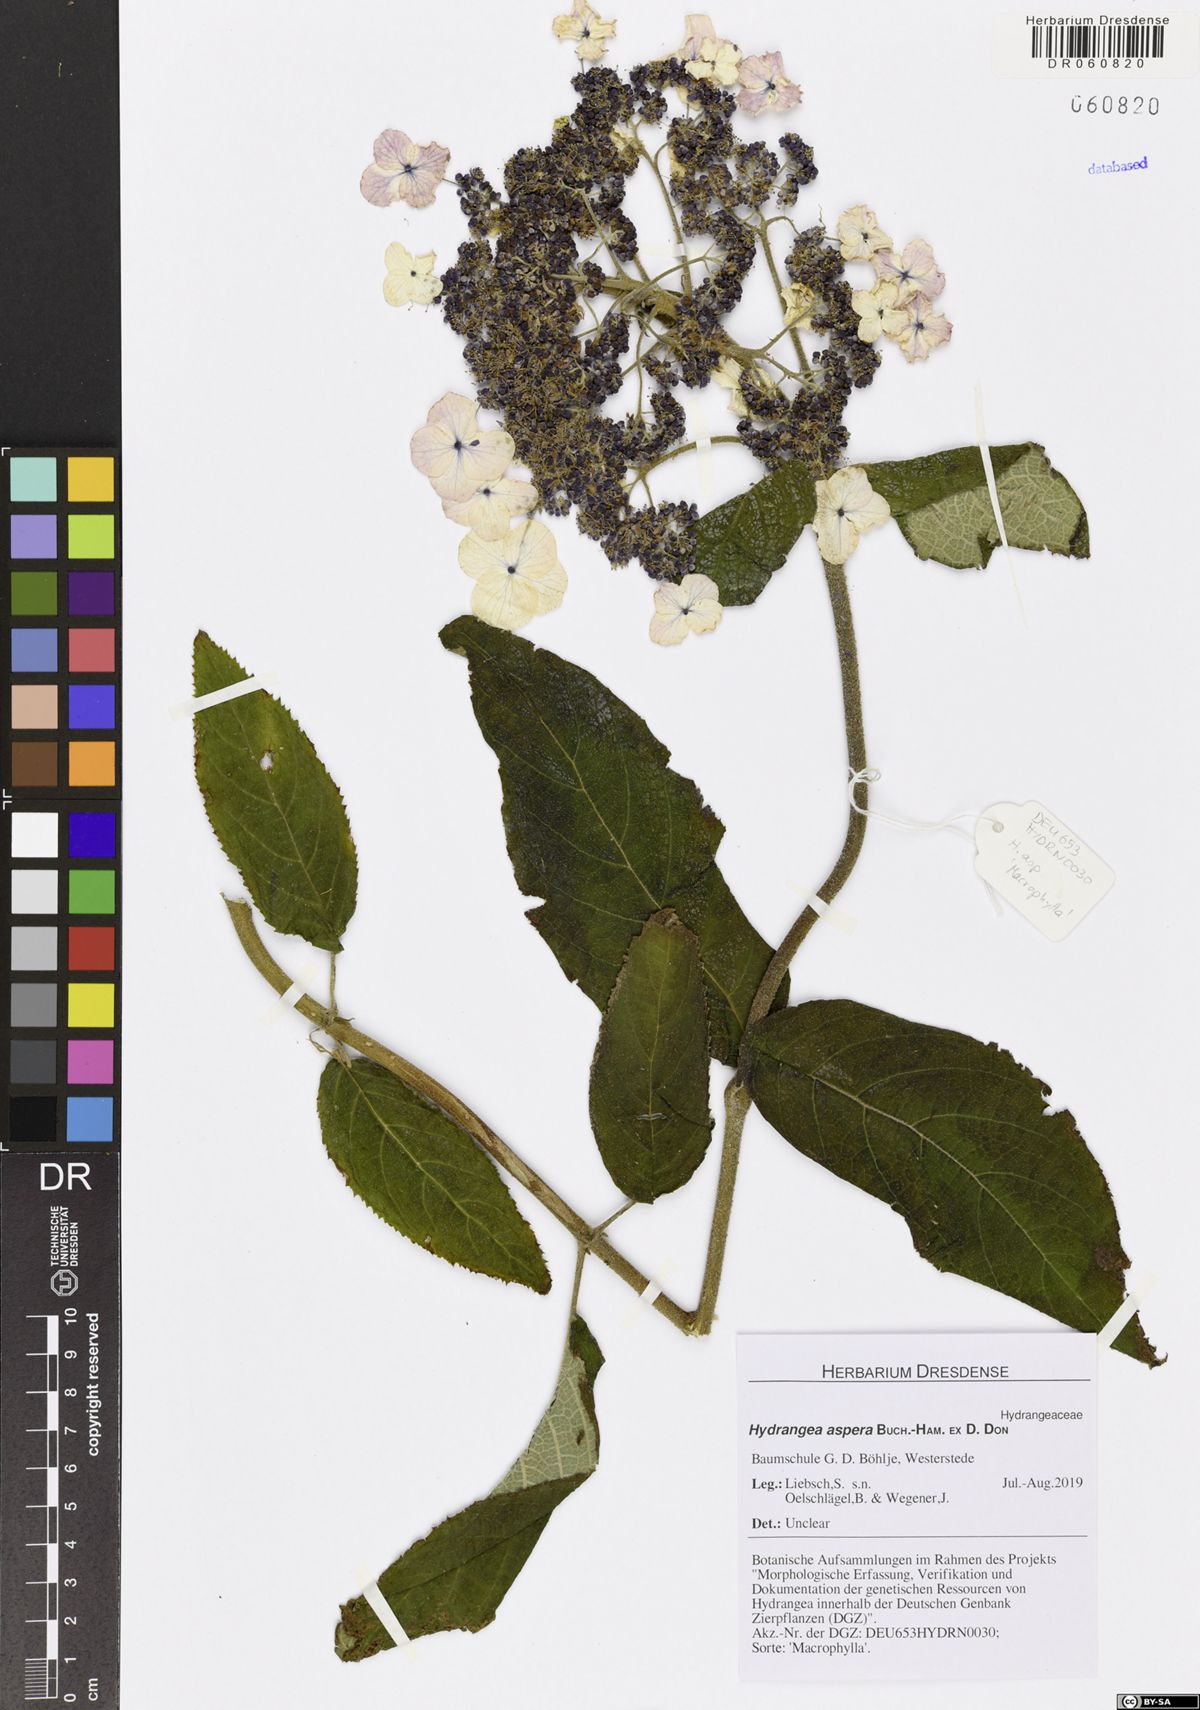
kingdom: Plantae
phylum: Tracheophyta
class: Magnoliopsida
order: Cornales
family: Hydrangeaceae
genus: Hydrangea
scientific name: Hydrangea aspera
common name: Rough-leaf hydrangea
